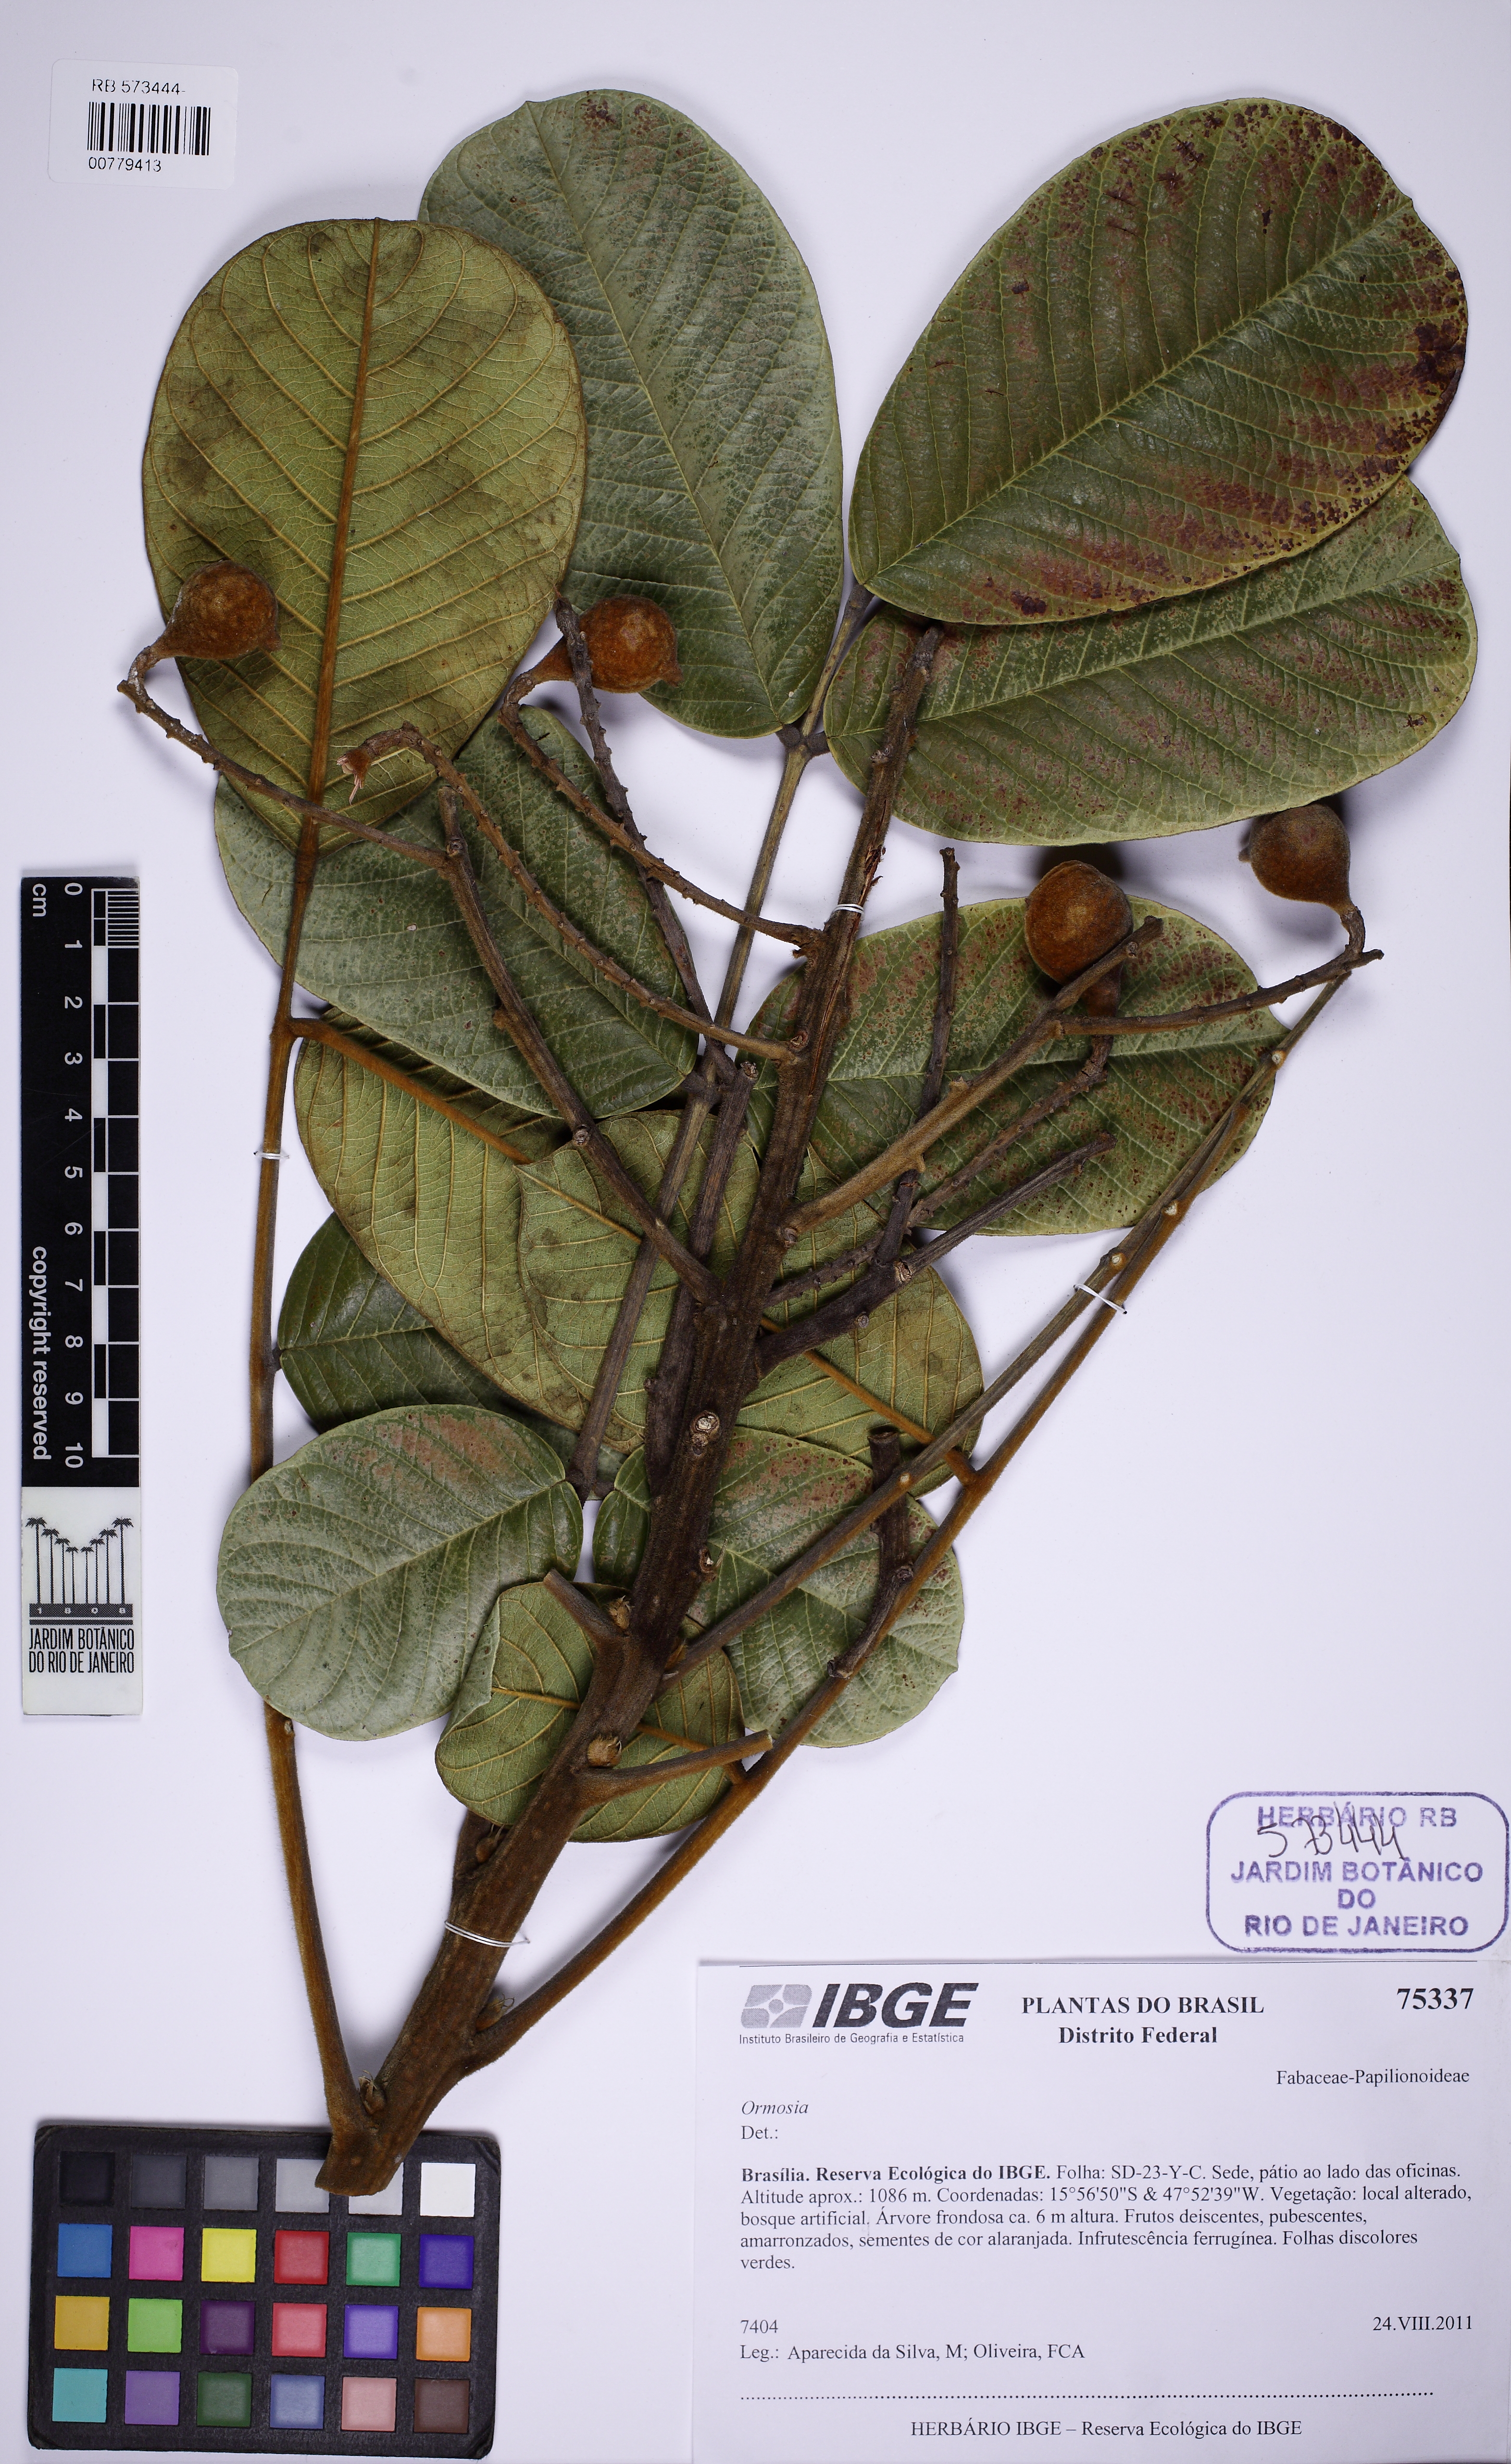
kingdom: Plantae
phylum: Tracheophyta
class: Magnoliopsida
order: Fabales
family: Fabaceae
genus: Ormosia
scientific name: Ormosia
